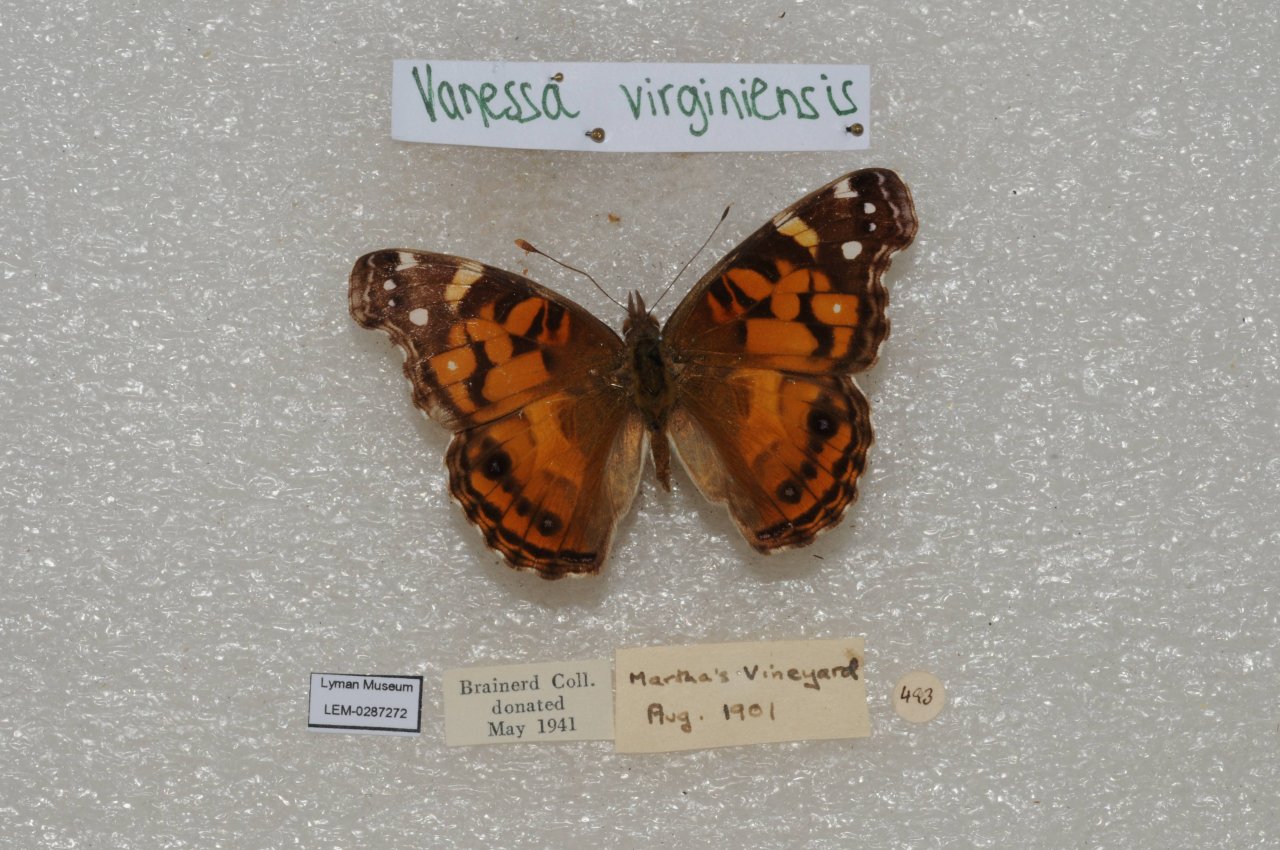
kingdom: Animalia
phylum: Arthropoda
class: Insecta
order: Lepidoptera
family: Nymphalidae
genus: Vanessa
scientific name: Vanessa virginiensis
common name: American Lady
